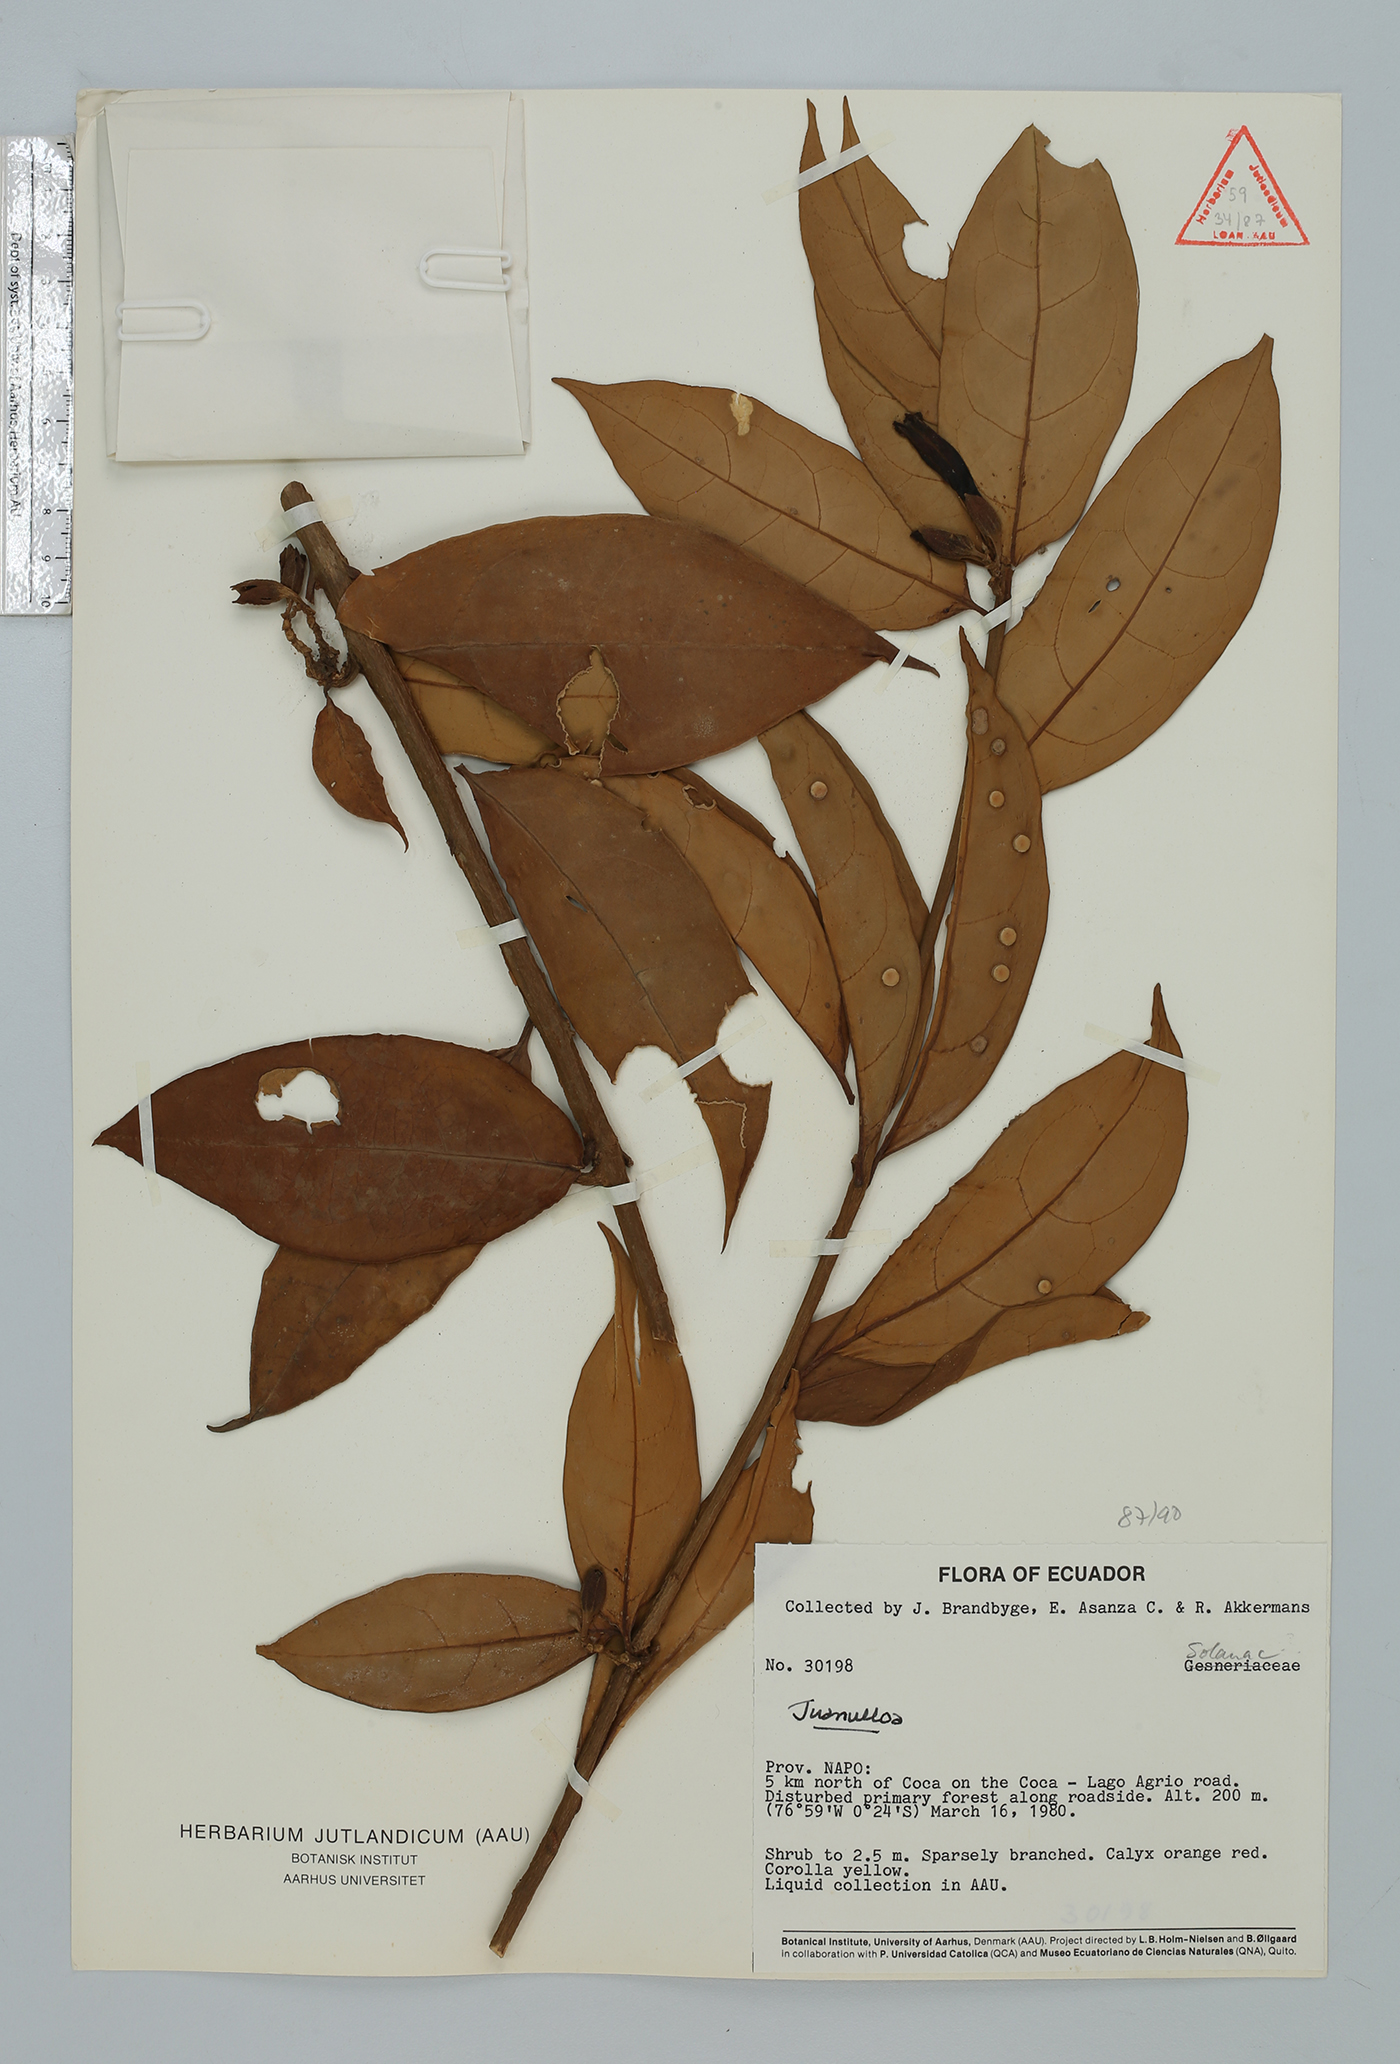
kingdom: Plantae
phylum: Tracheophyta
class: Magnoliopsida
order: Solanales
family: Solanaceae
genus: Hawkesiophyton
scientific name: Hawkesiophyton ochraceum
